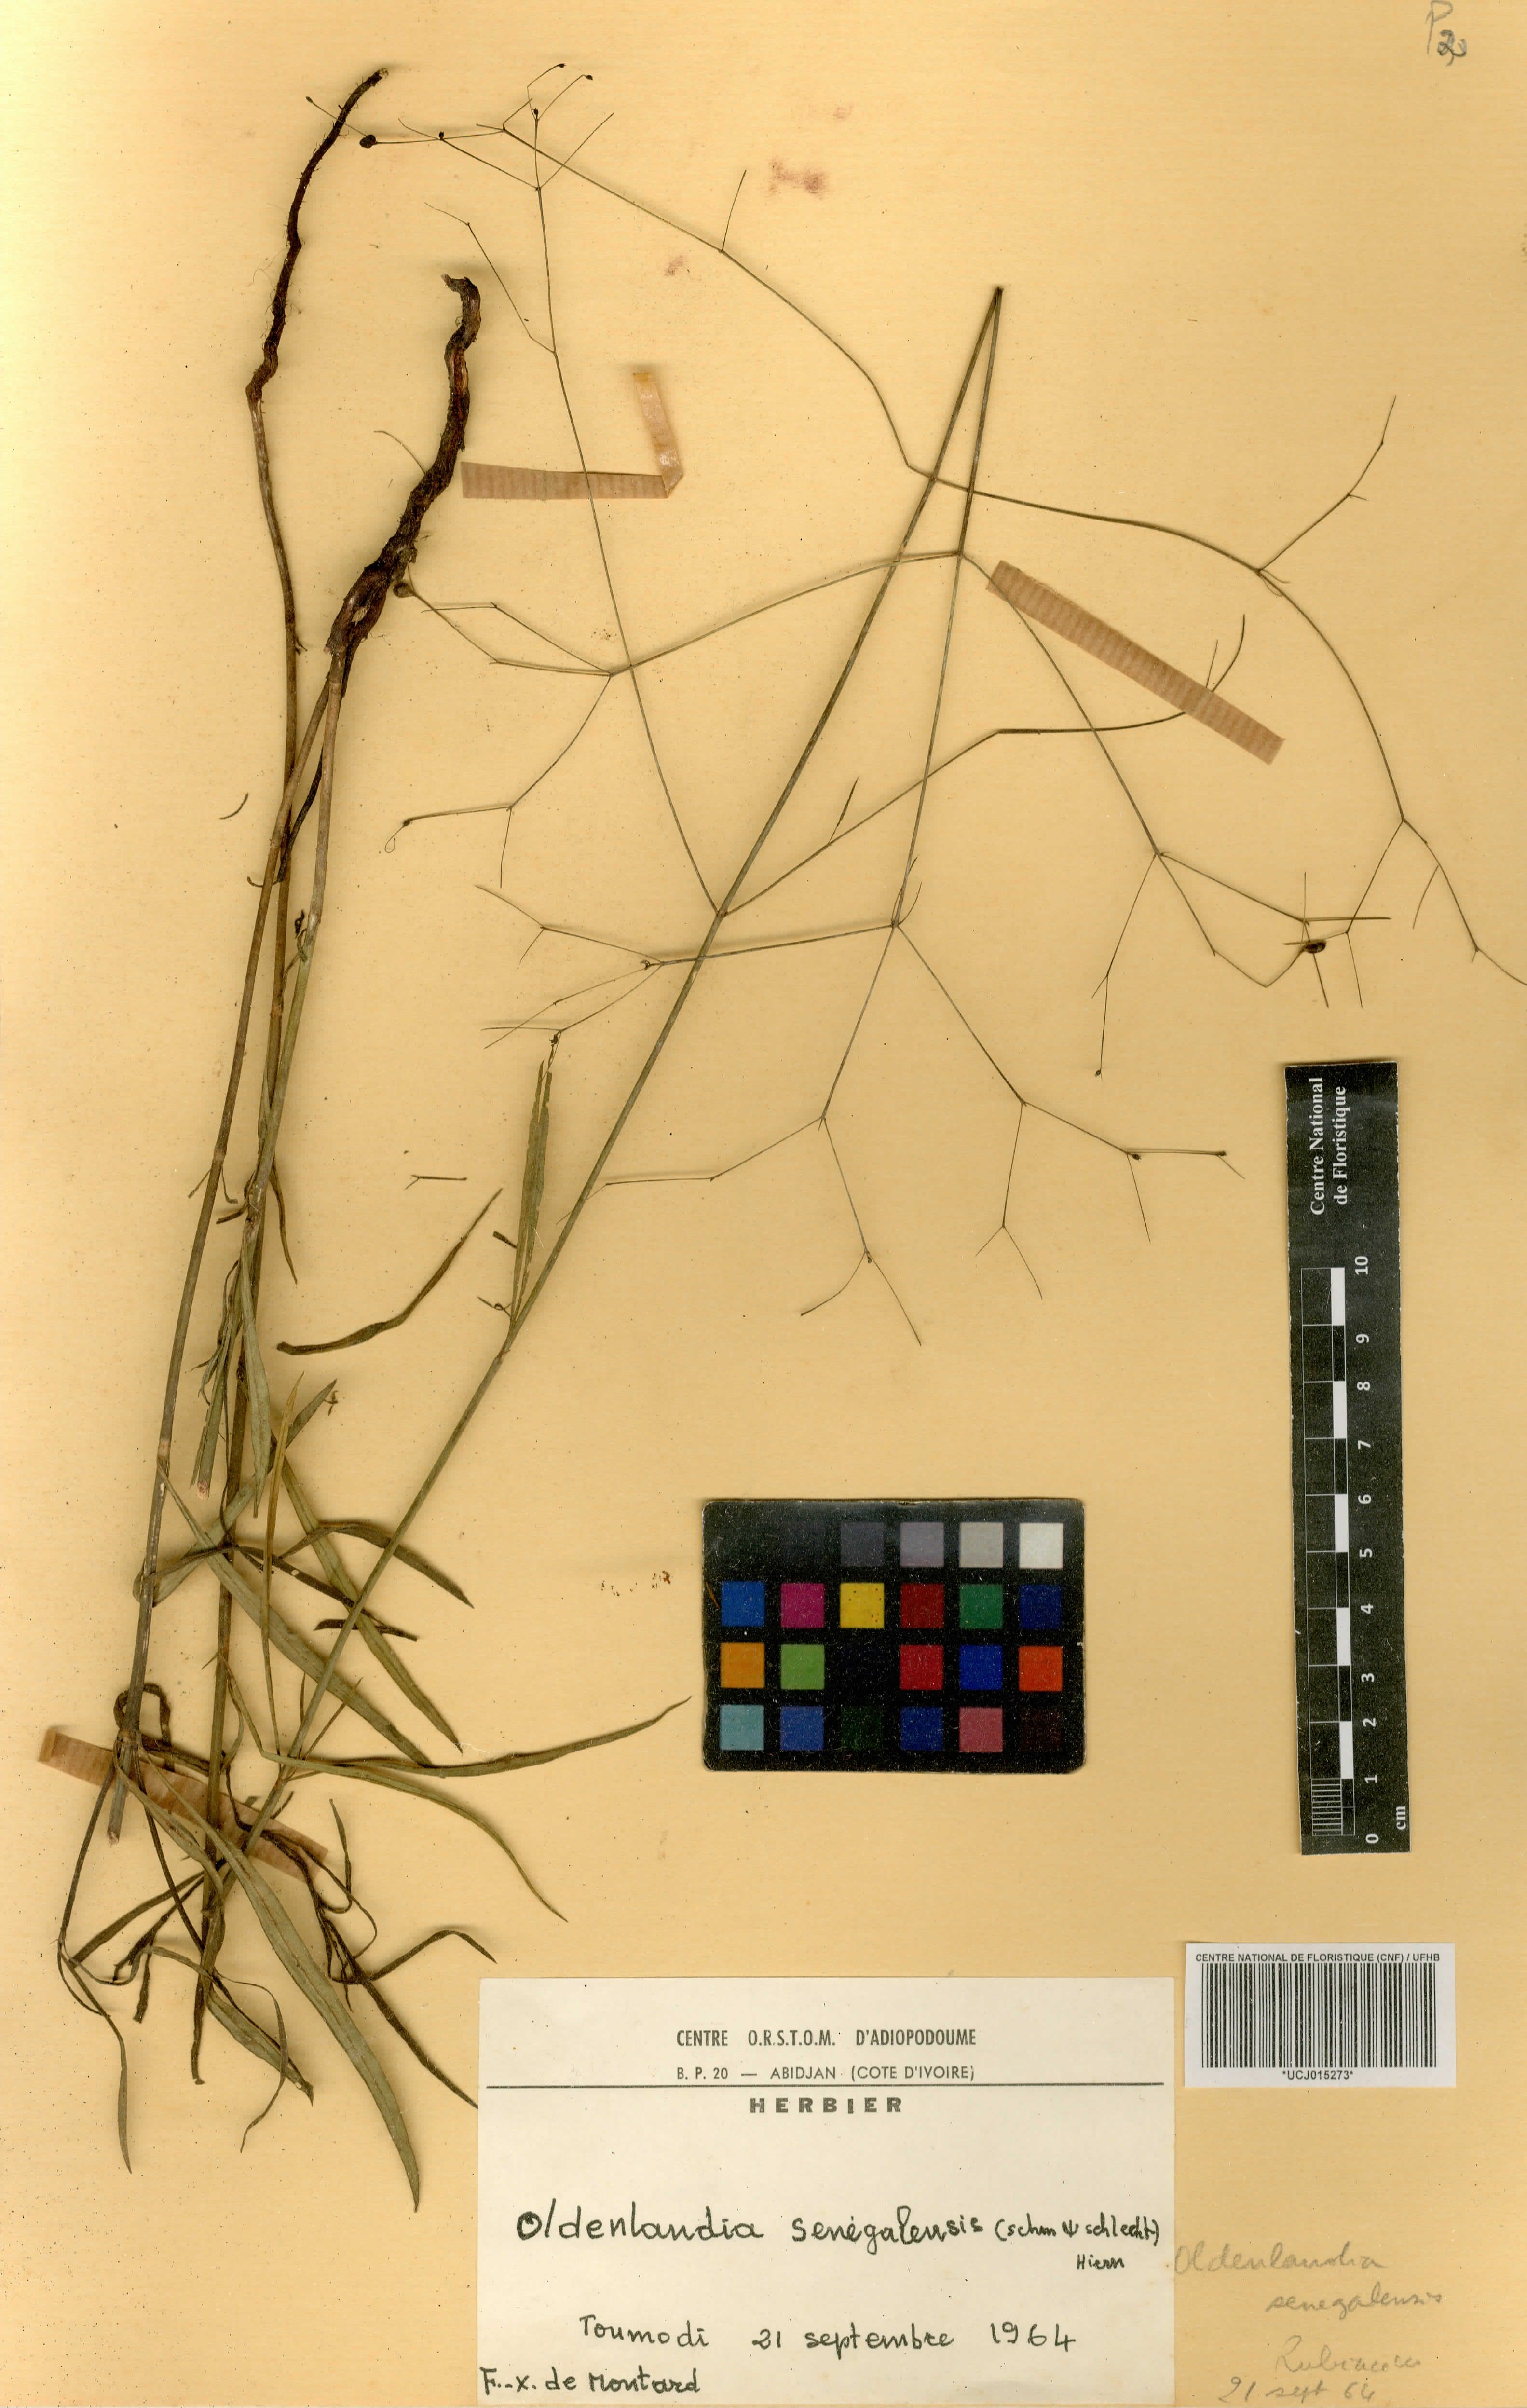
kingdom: Plantae
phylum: Tracheophyta
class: Magnoliopsida
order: Gentianales
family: Rubiaceae
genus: Kohautia
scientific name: Kohautia tenuis
